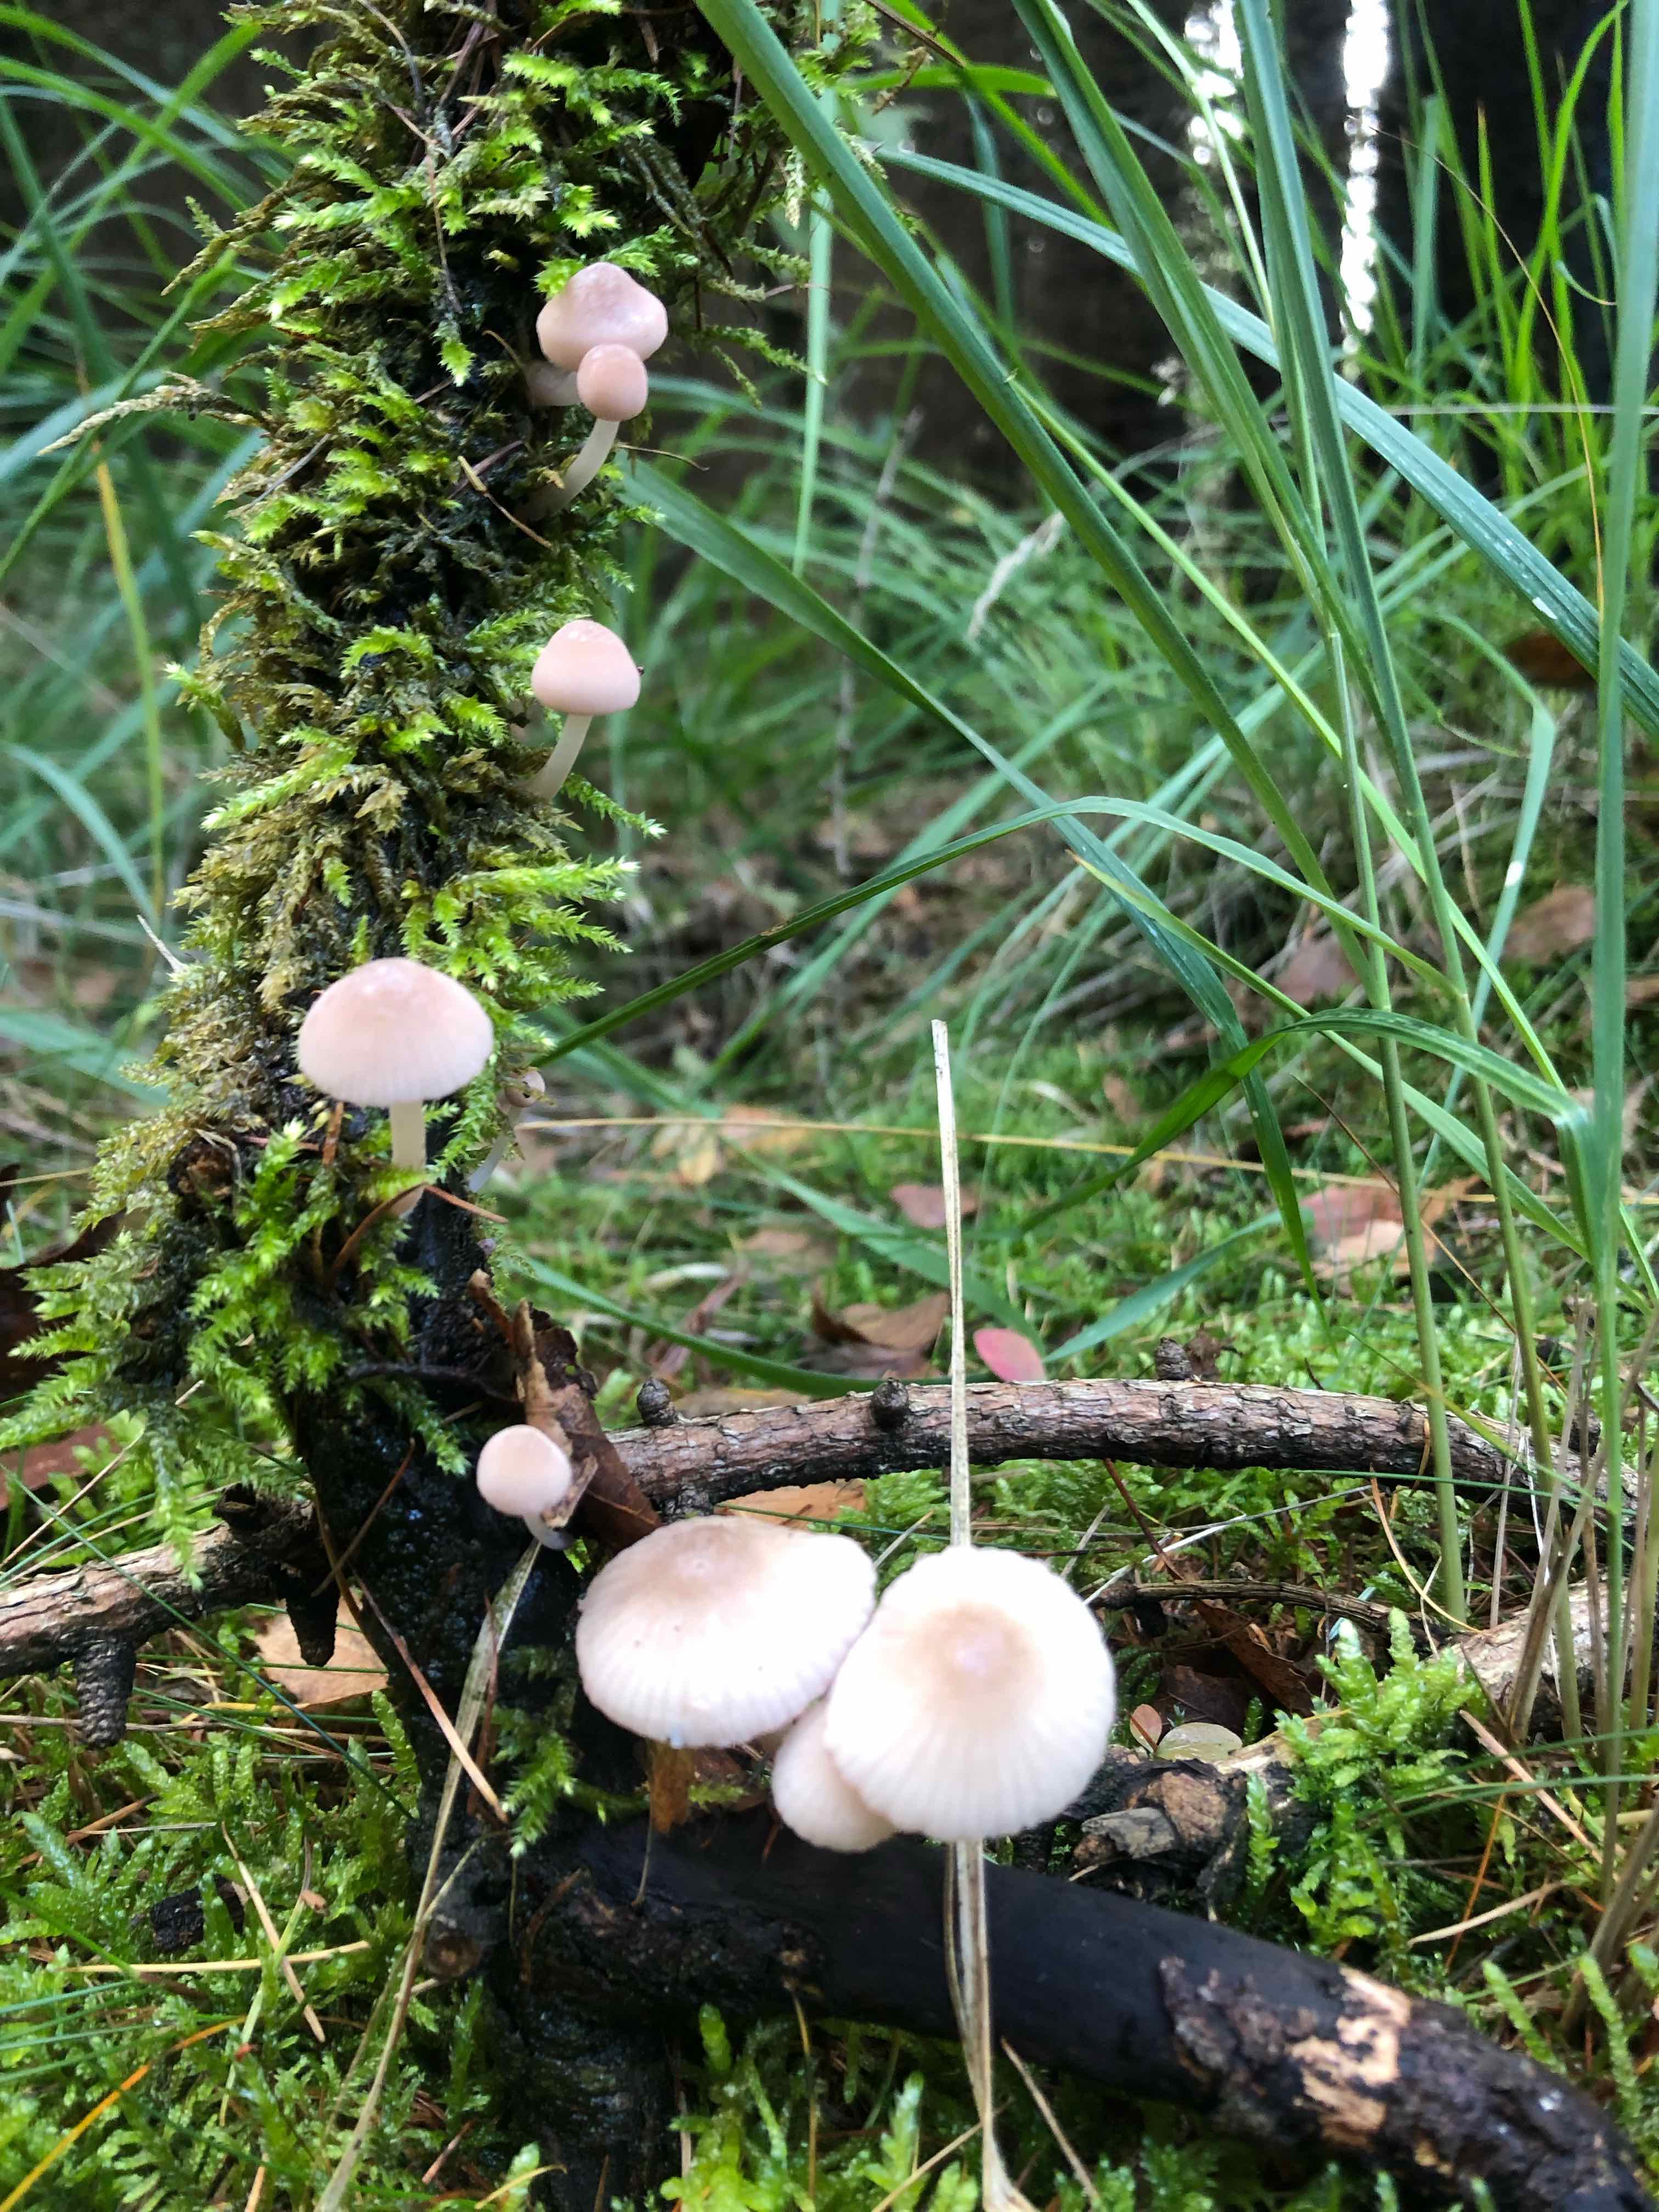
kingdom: Fungi
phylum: Basidiomycota
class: Agaricomycetes
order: Agaricales
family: Mycenaceae
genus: Mycena
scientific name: Mycena rubromarginata
